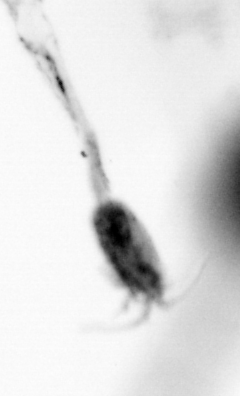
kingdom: Animalia
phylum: Arthropoda
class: Copepoda
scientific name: Copepoda
